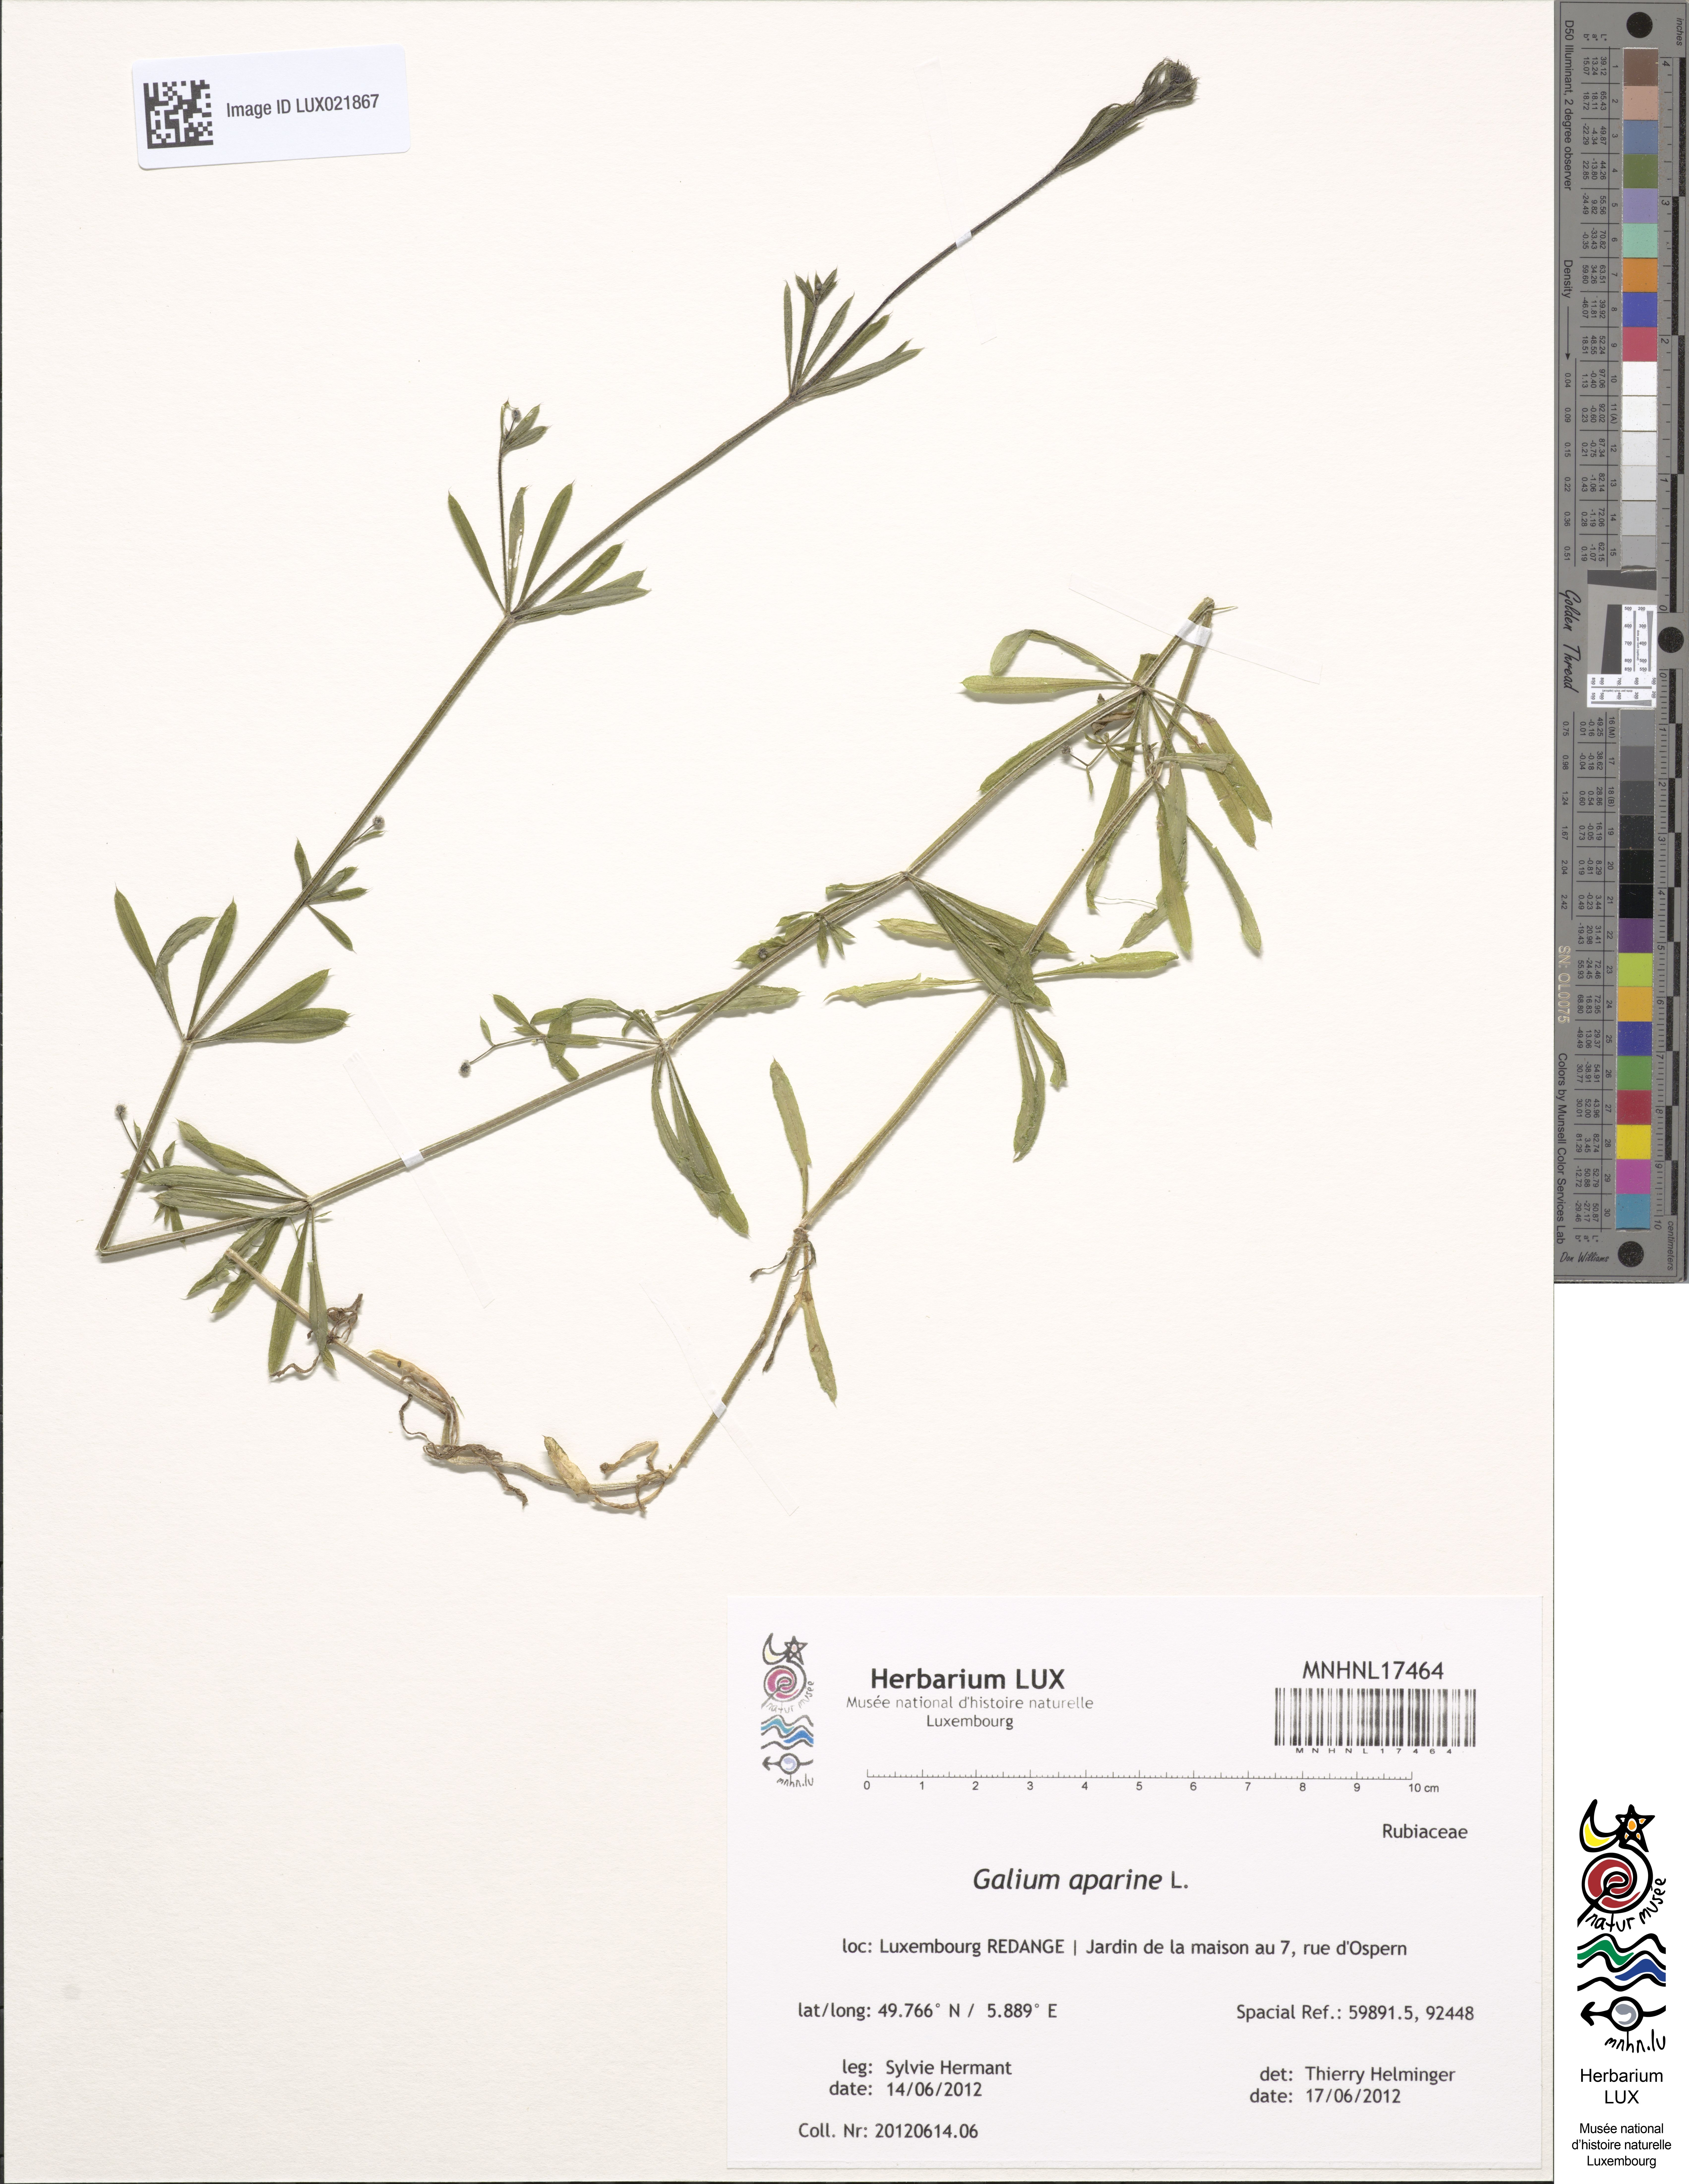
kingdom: Plantae
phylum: Tracheophyta
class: Magnoliopsida
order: Gentianales
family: Rubiaceae
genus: Galium
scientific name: Galium aparine
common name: Cleavers
